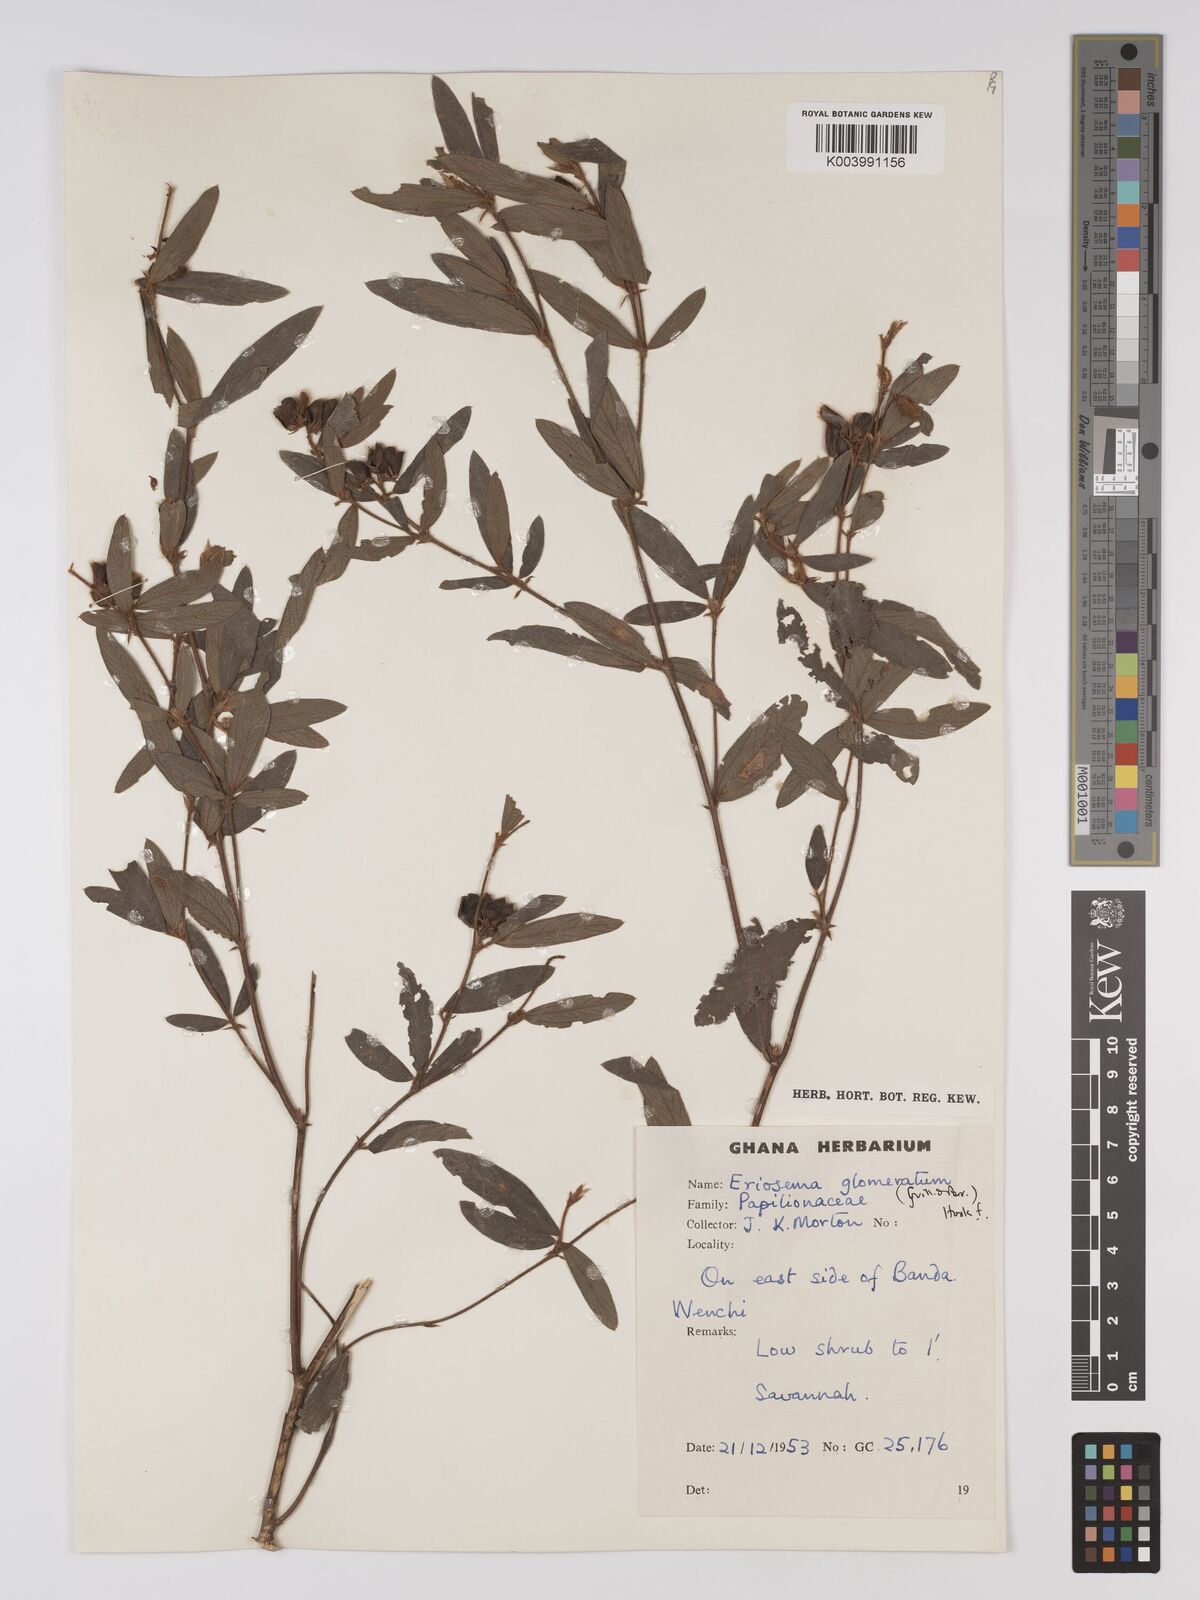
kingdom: Plantae
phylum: Tracheophyta
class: Magnoliopsida
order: Fabales
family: Fabaceae
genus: Eriosema
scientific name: Eriosema glomeratum
